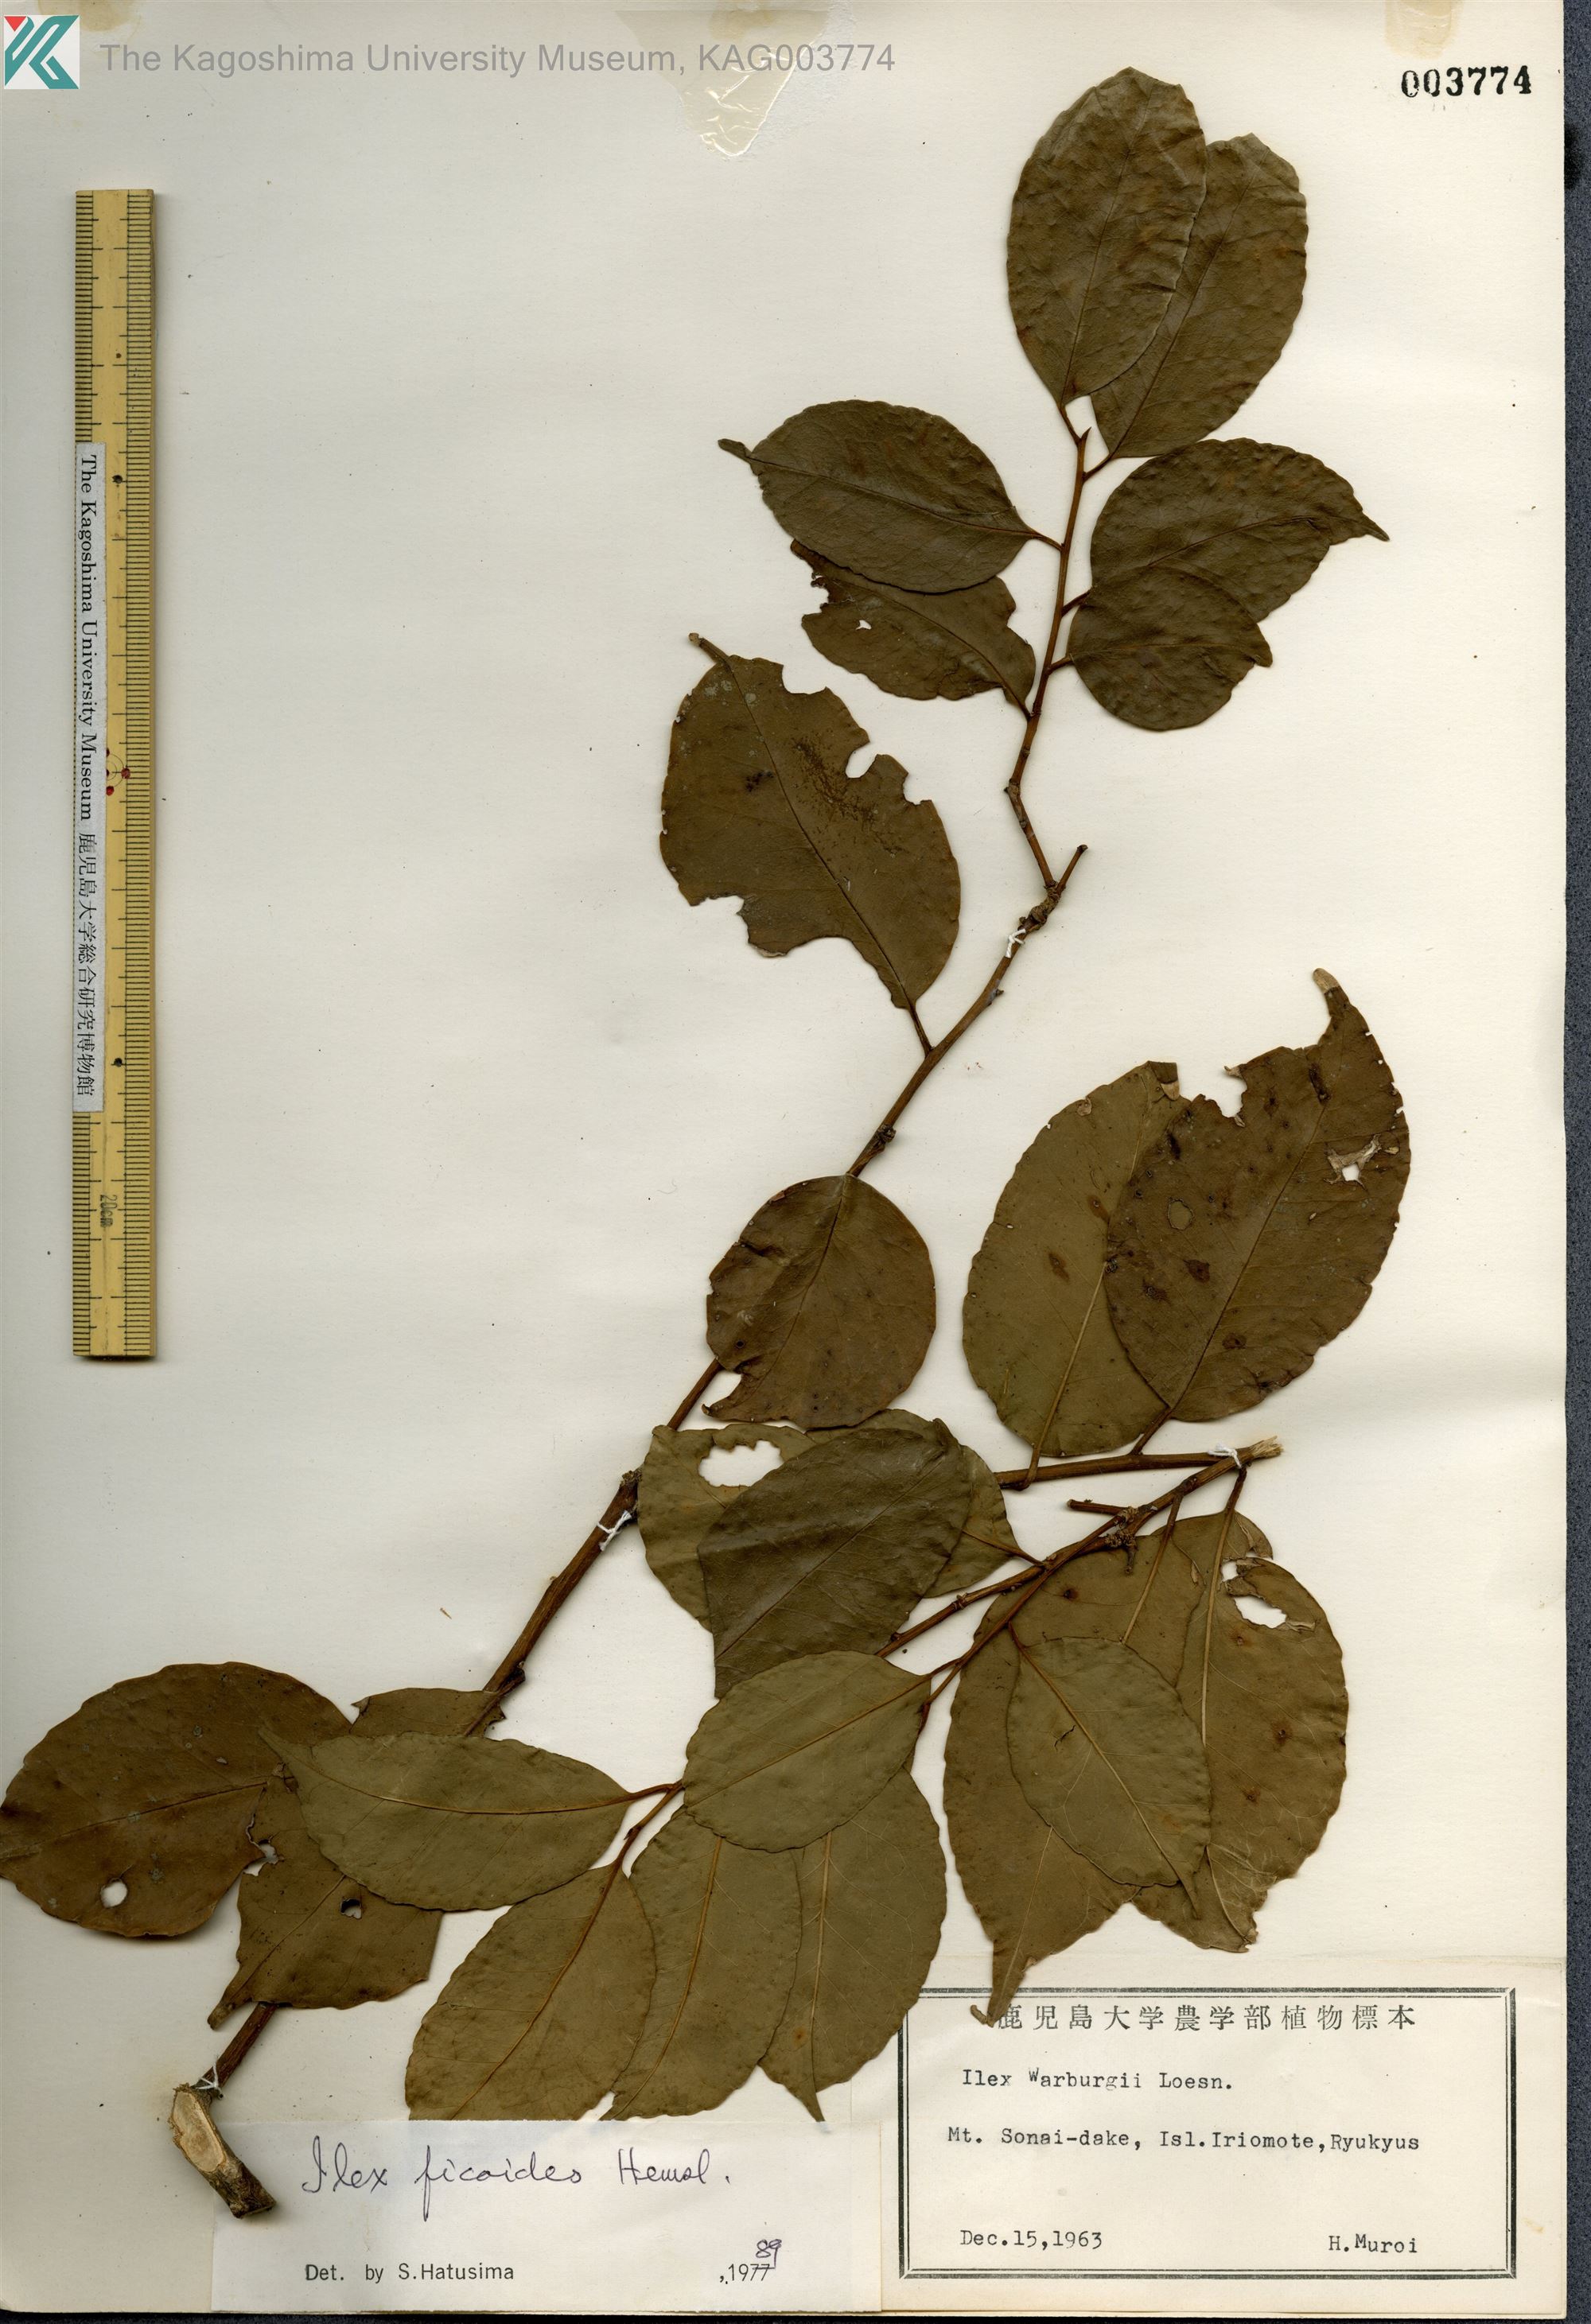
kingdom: Plantae
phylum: Tracheophyta
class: Magnoliopsida
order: Aquifoliales
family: Aquifoliaceae
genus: Ilex
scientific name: Ilex warburgii
